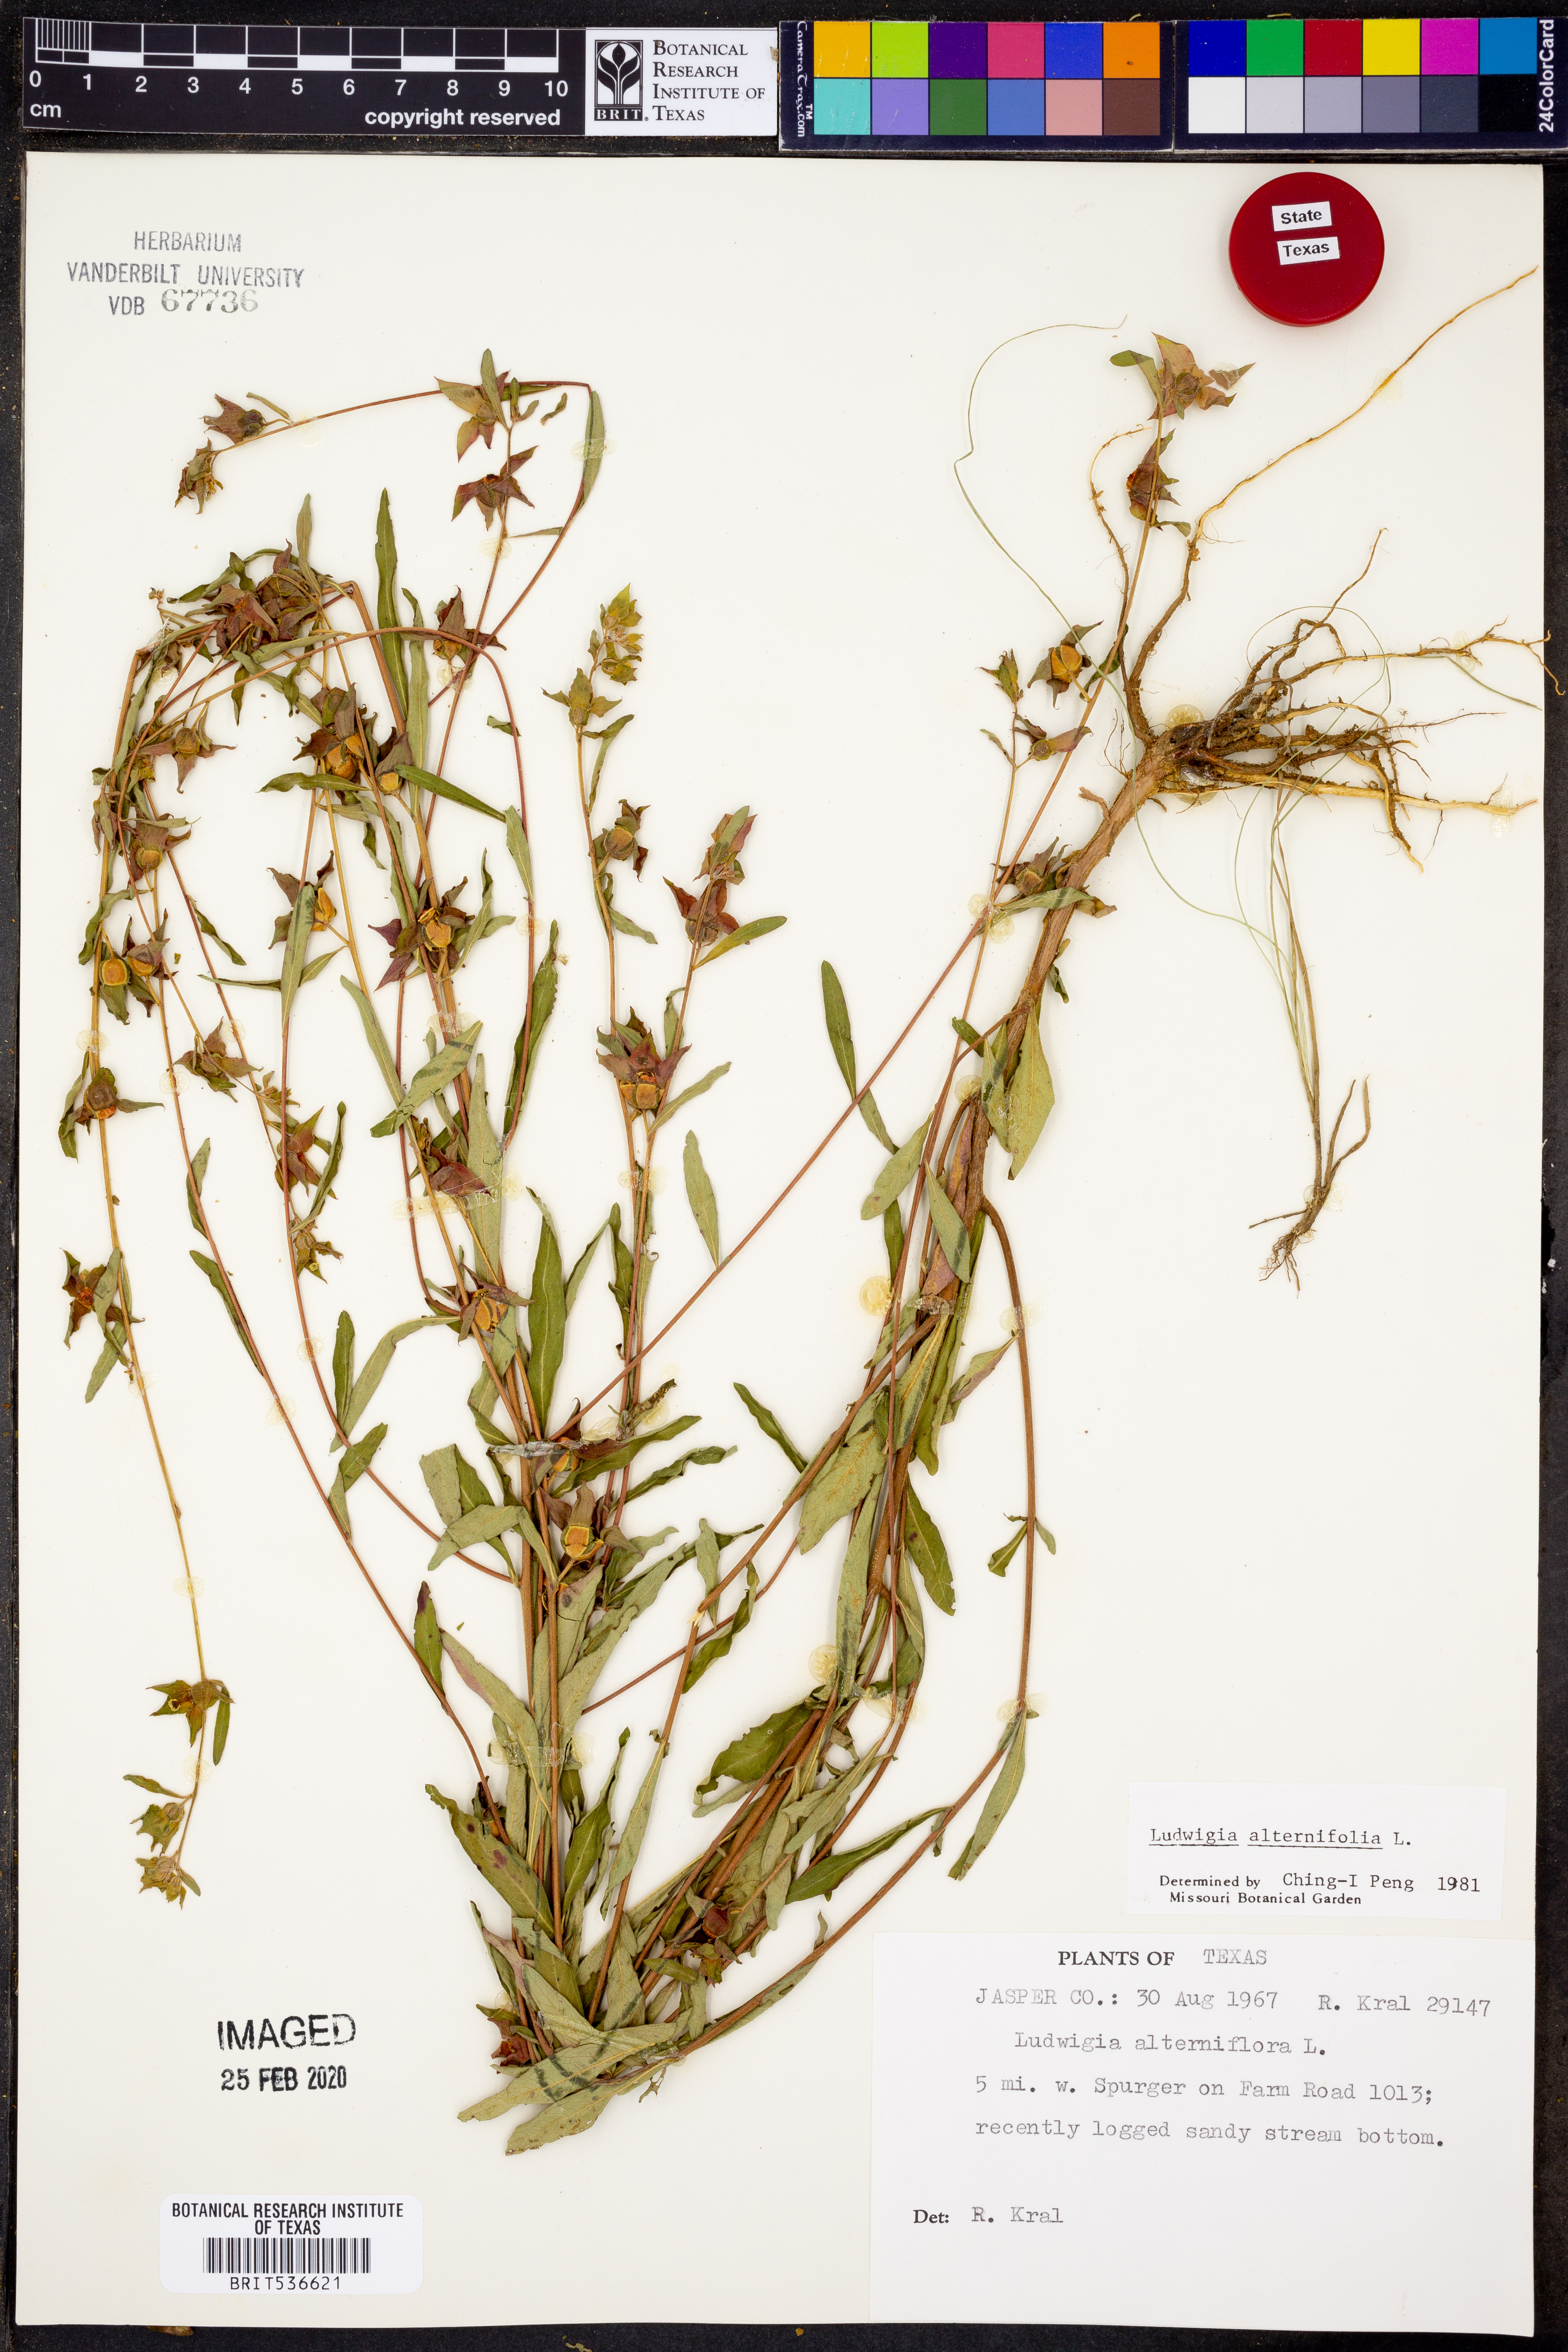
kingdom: Plantae
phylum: Tracheophyta
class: Magnoliopsida
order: Myrtales
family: Onagraceae
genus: Ludwigia
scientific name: Ludwigia alternifolia
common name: Rattlebox
